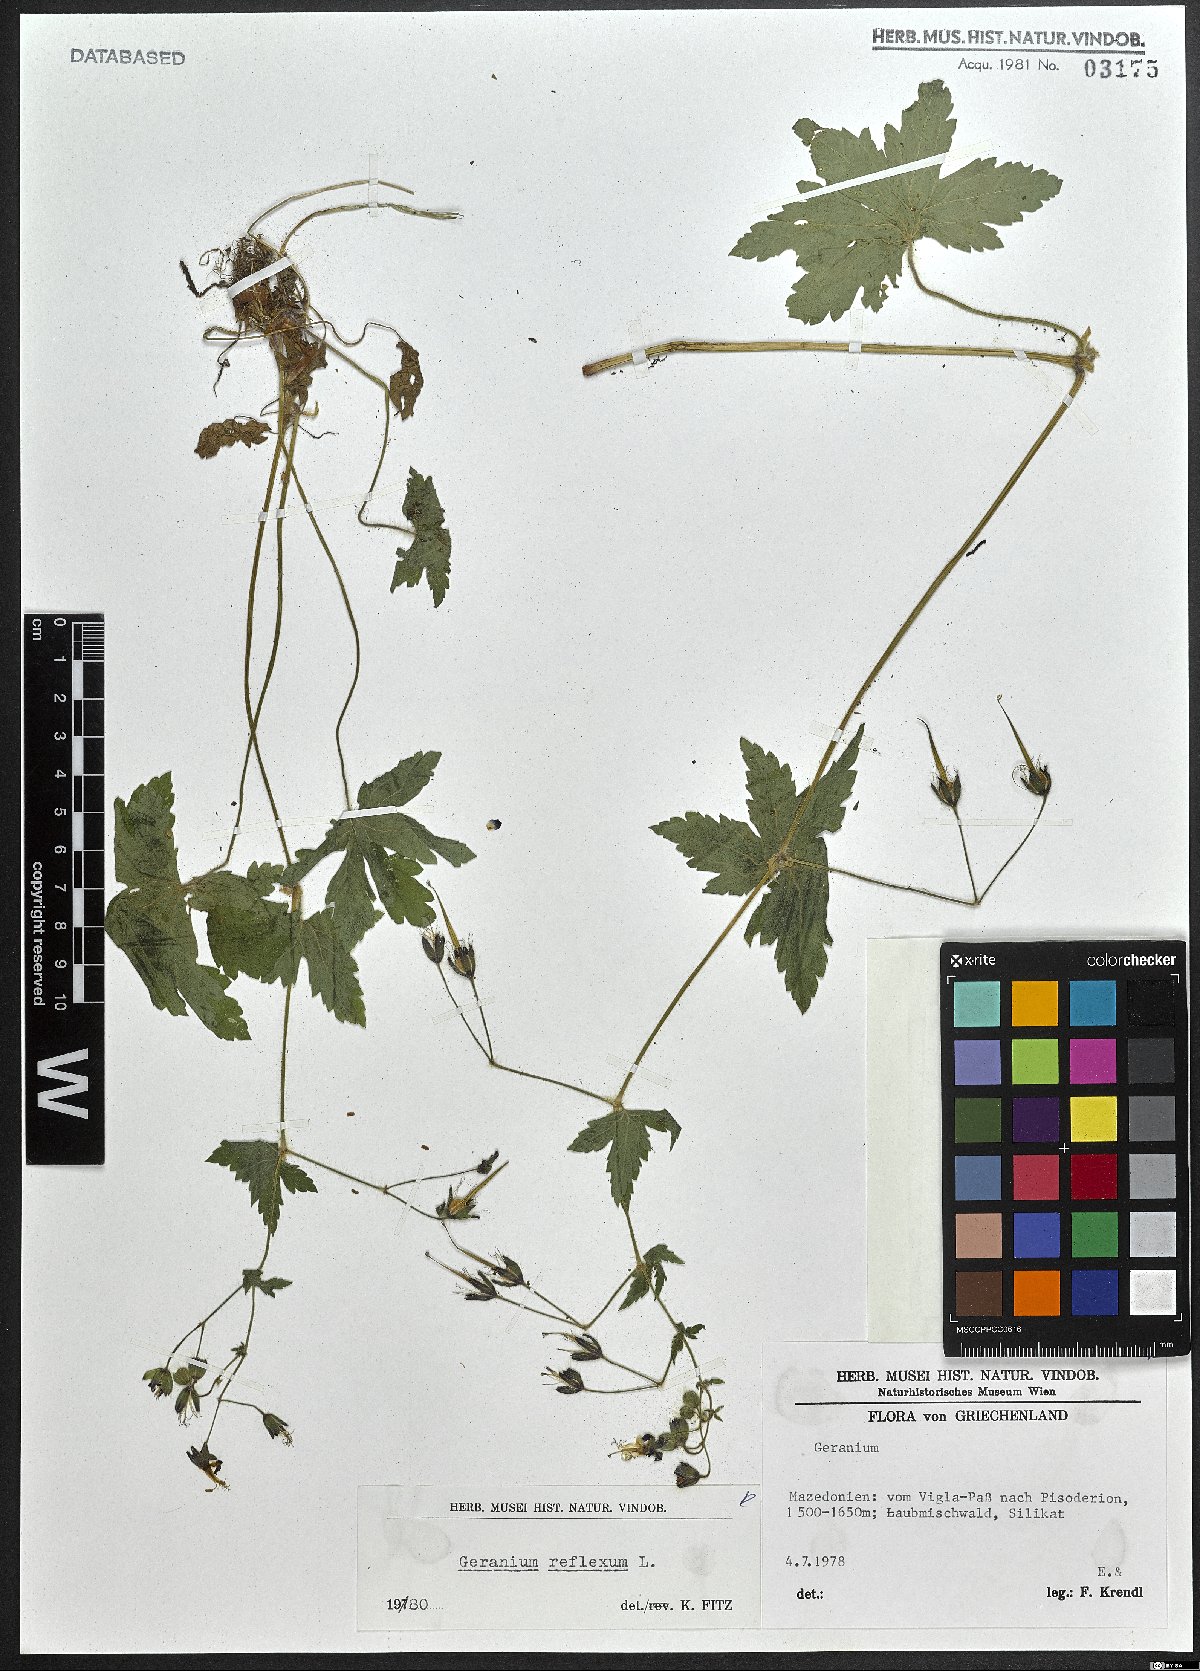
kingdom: Plantae
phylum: Tracheophyta
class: Magnoliopsida
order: Geraniales
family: Geraniaceae
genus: Geranium
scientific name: Geranium reflexum
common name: Reflexed crane's-bill
